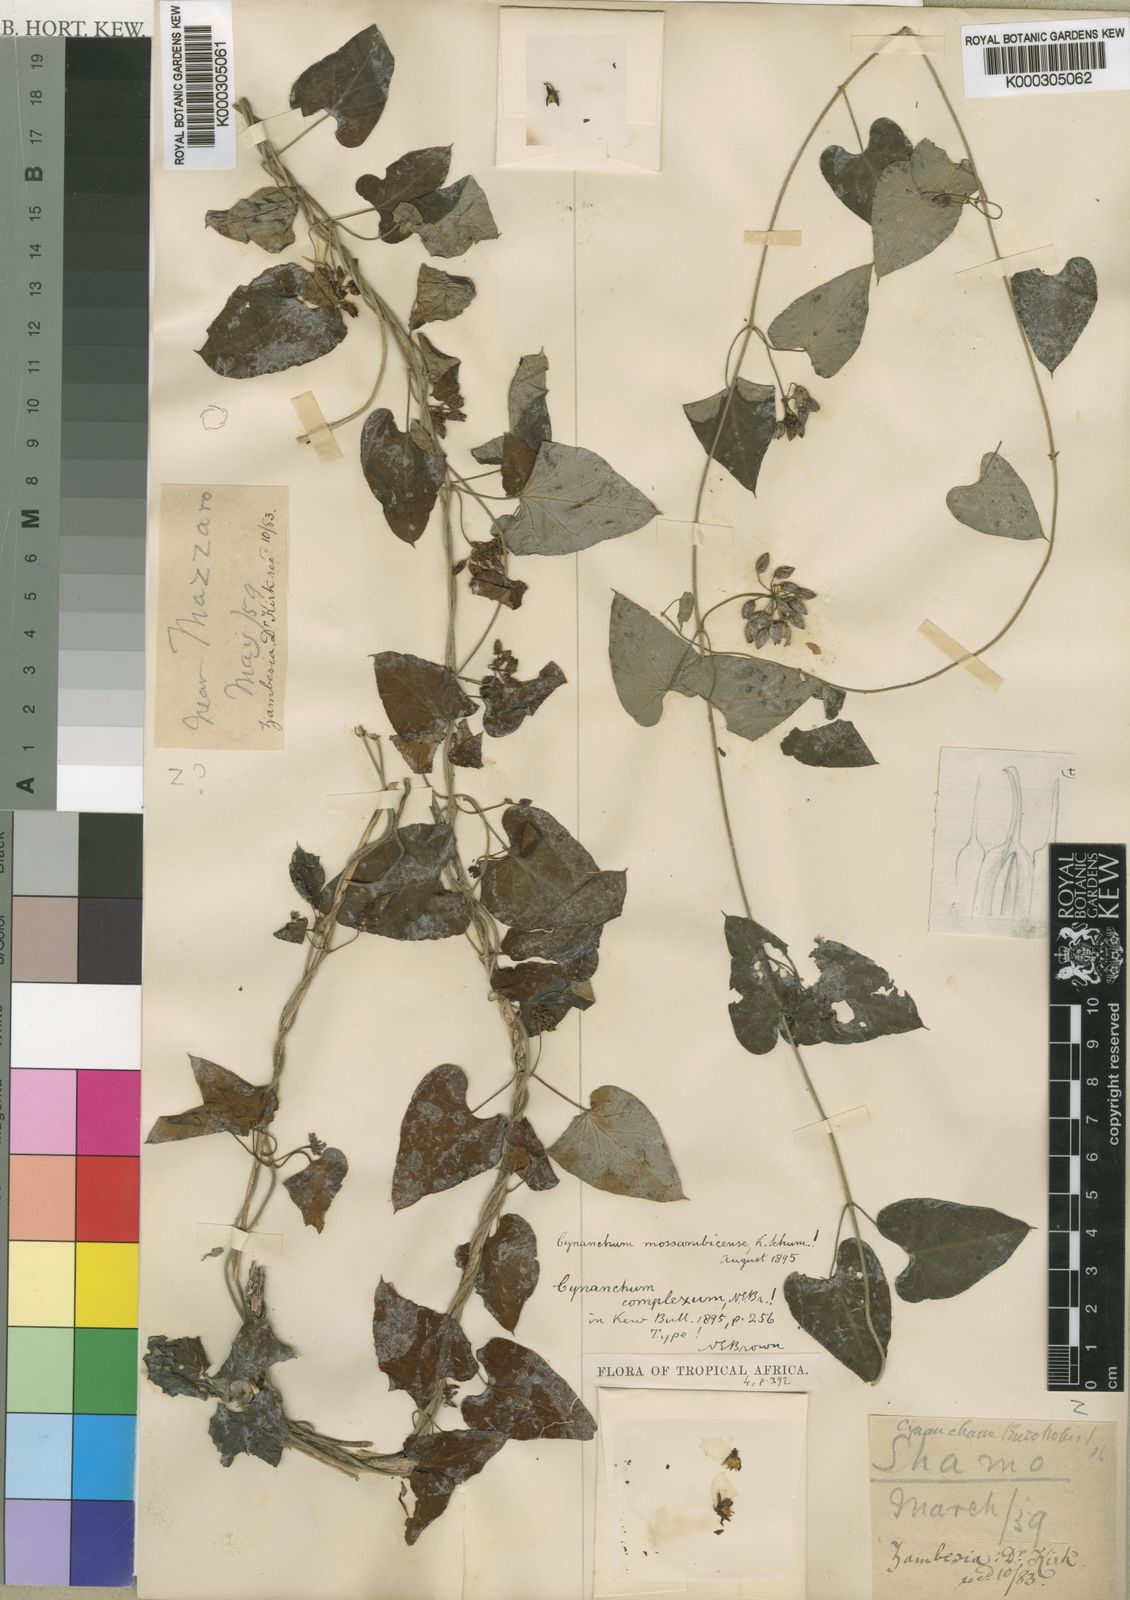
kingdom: Plantae
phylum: Tracheophyta
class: Magnoliopsida
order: Gentianales
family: Apocynaceae
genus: Cynanchum
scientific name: Cynanchum mossambicense
